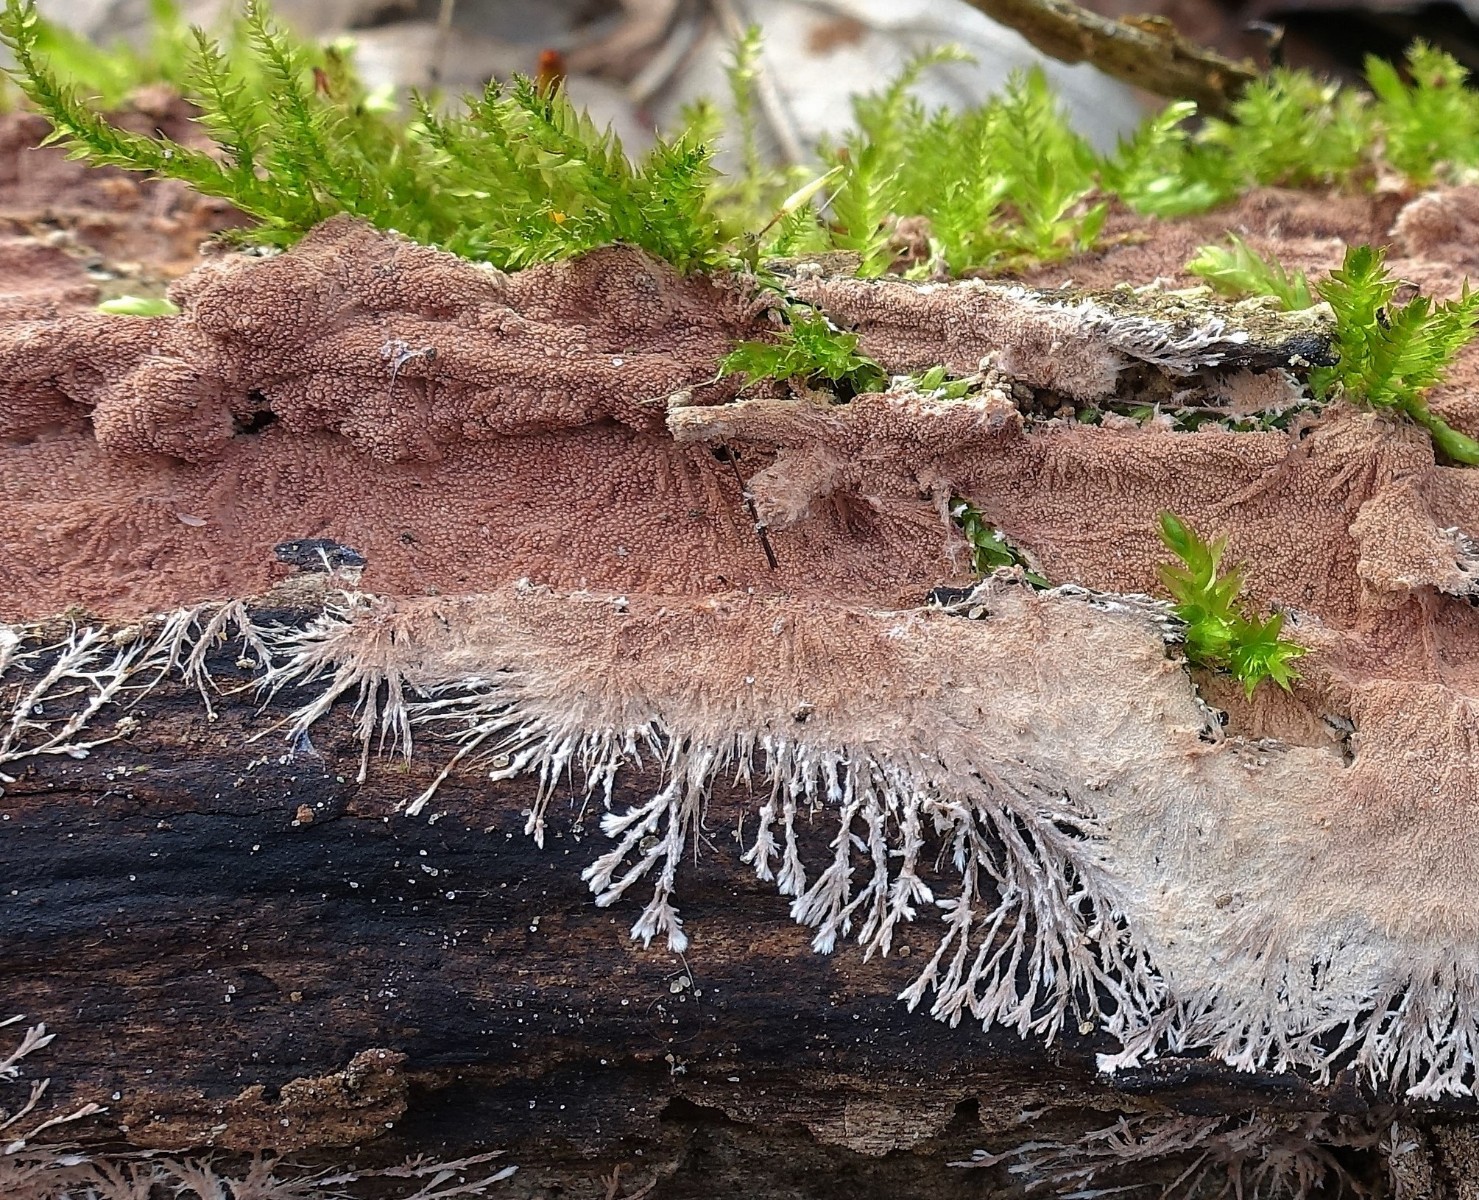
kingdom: Fungi
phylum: Basidiomycota
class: Agaricomycetes
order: Polyporales
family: Steccherinaceae
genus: Steccherinum
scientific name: Steccherinum fimbriatum
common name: trådet skønpig
